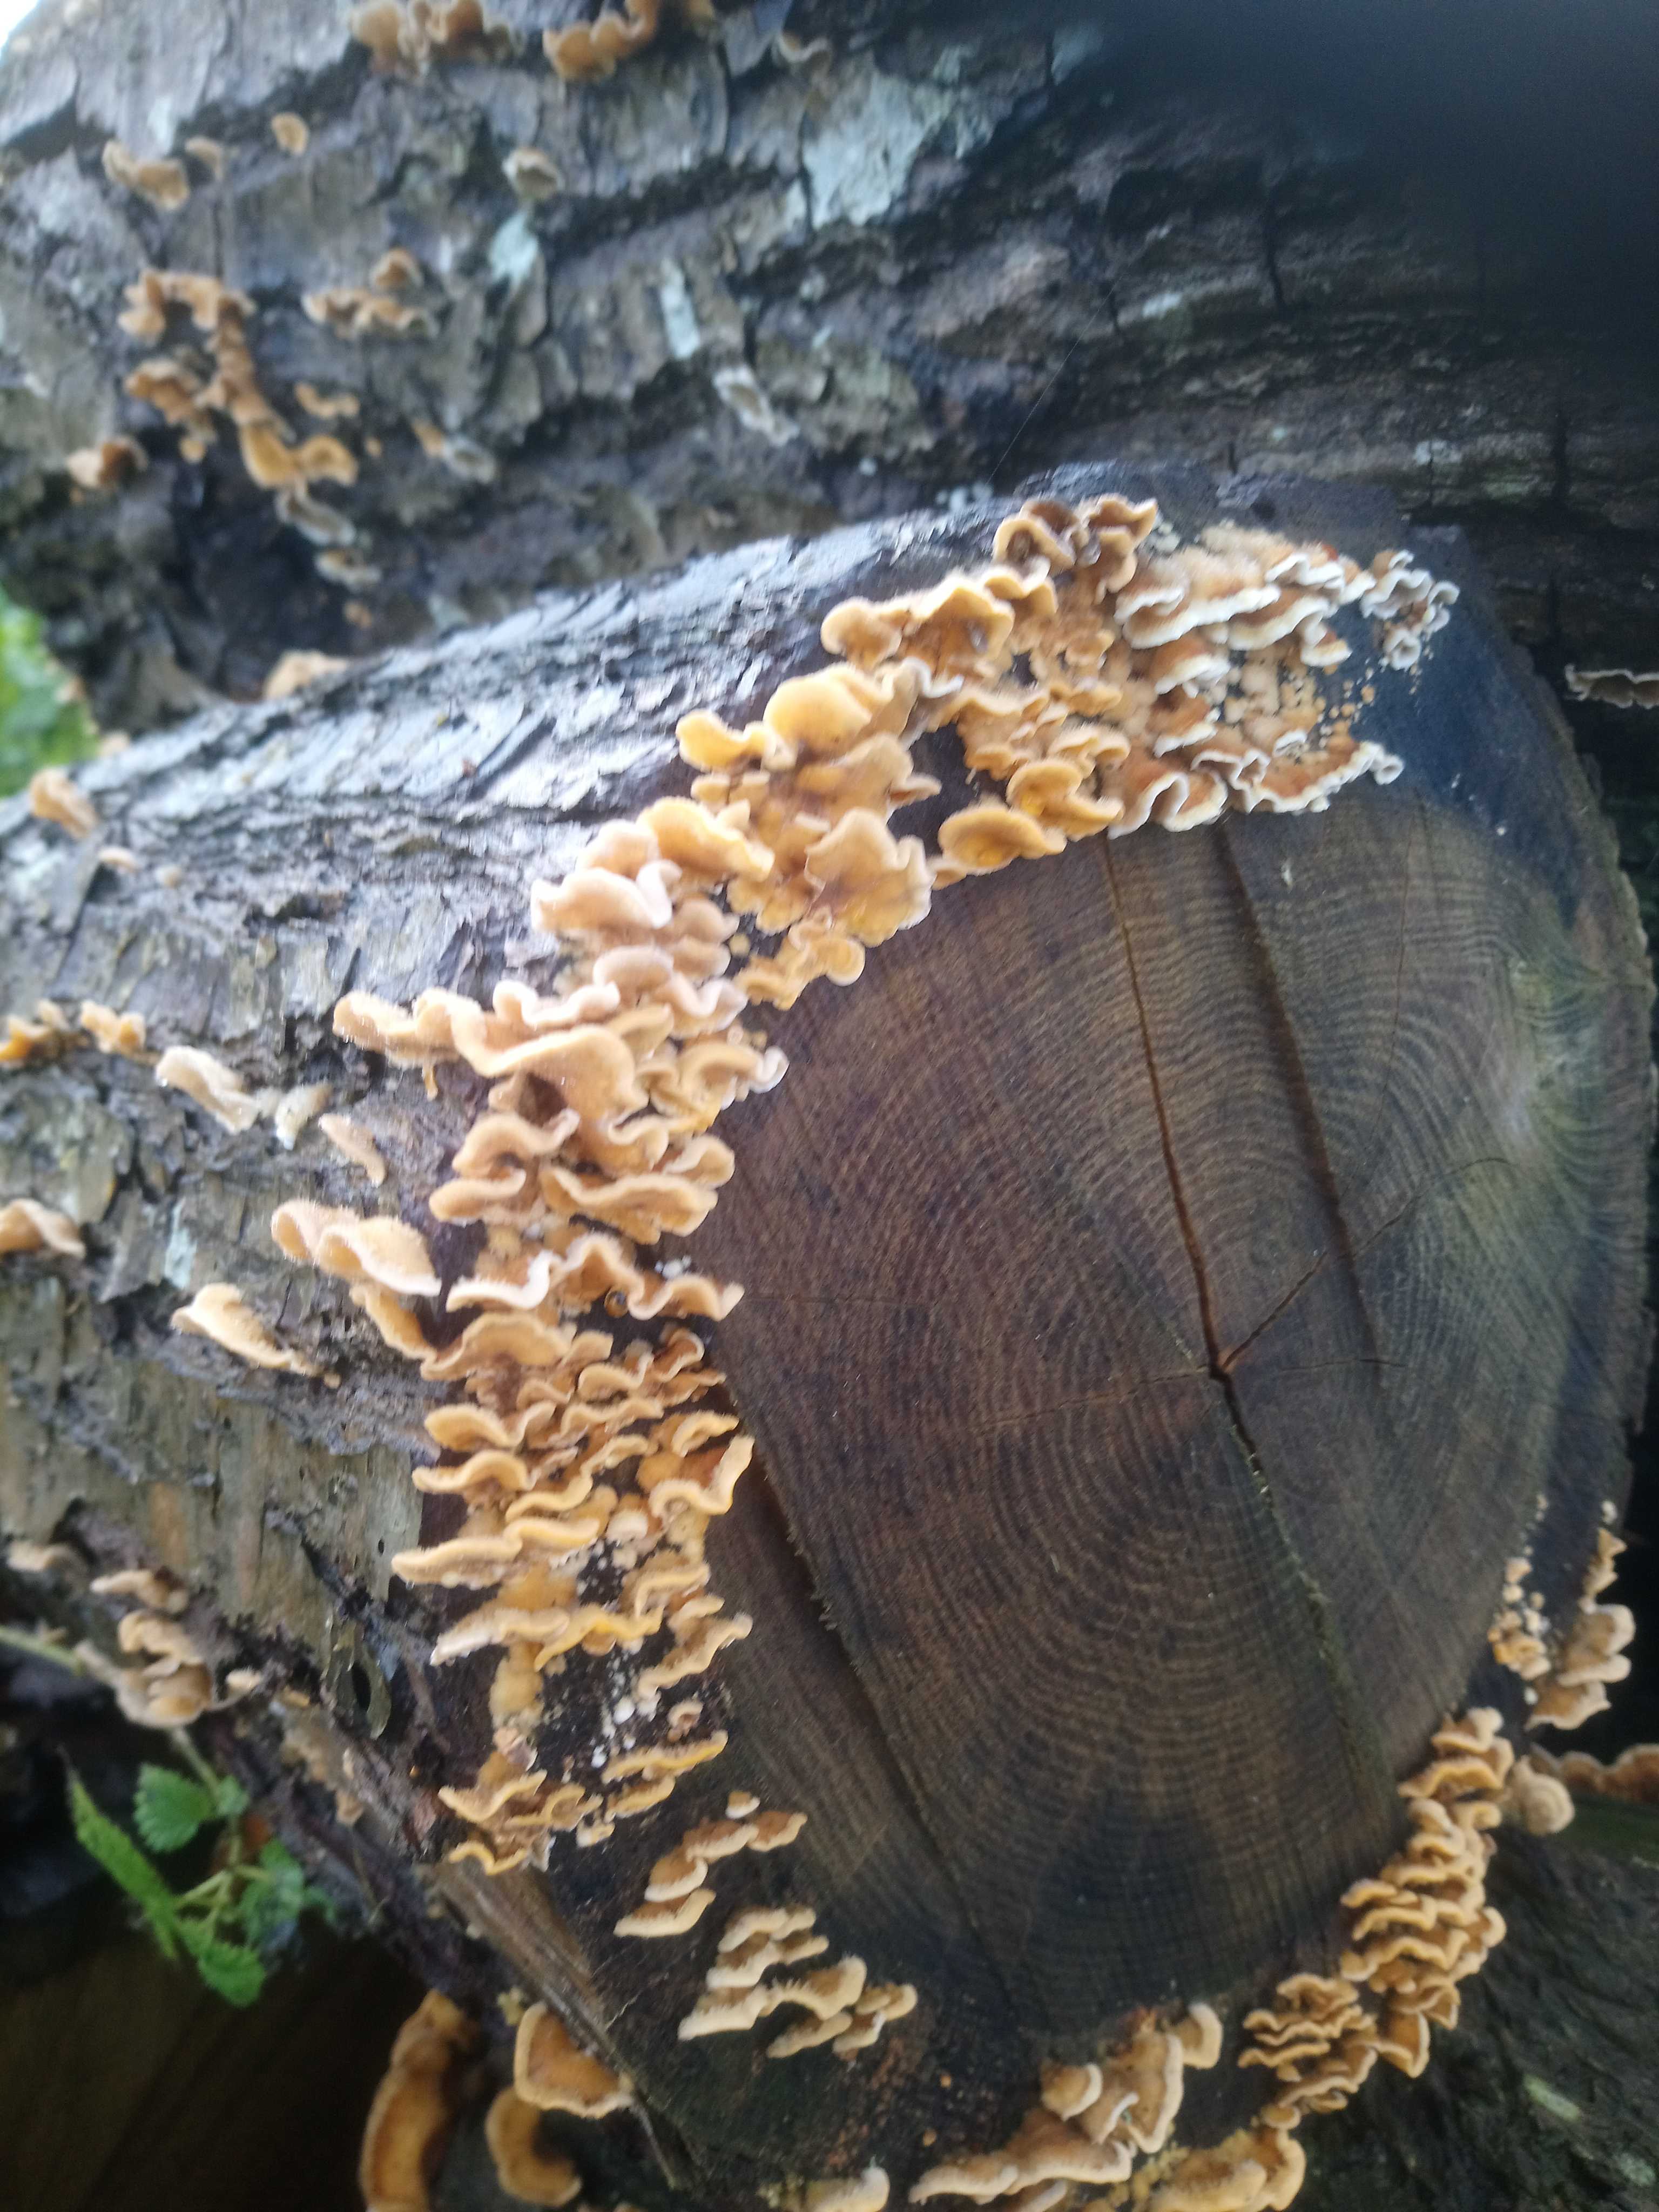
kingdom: Fungi
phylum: Basidiomycota
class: Agaricomycetes
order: Russulales
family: Stereaceae
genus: Stereum
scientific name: Stereum hirsutum
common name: håret lædersvamp
